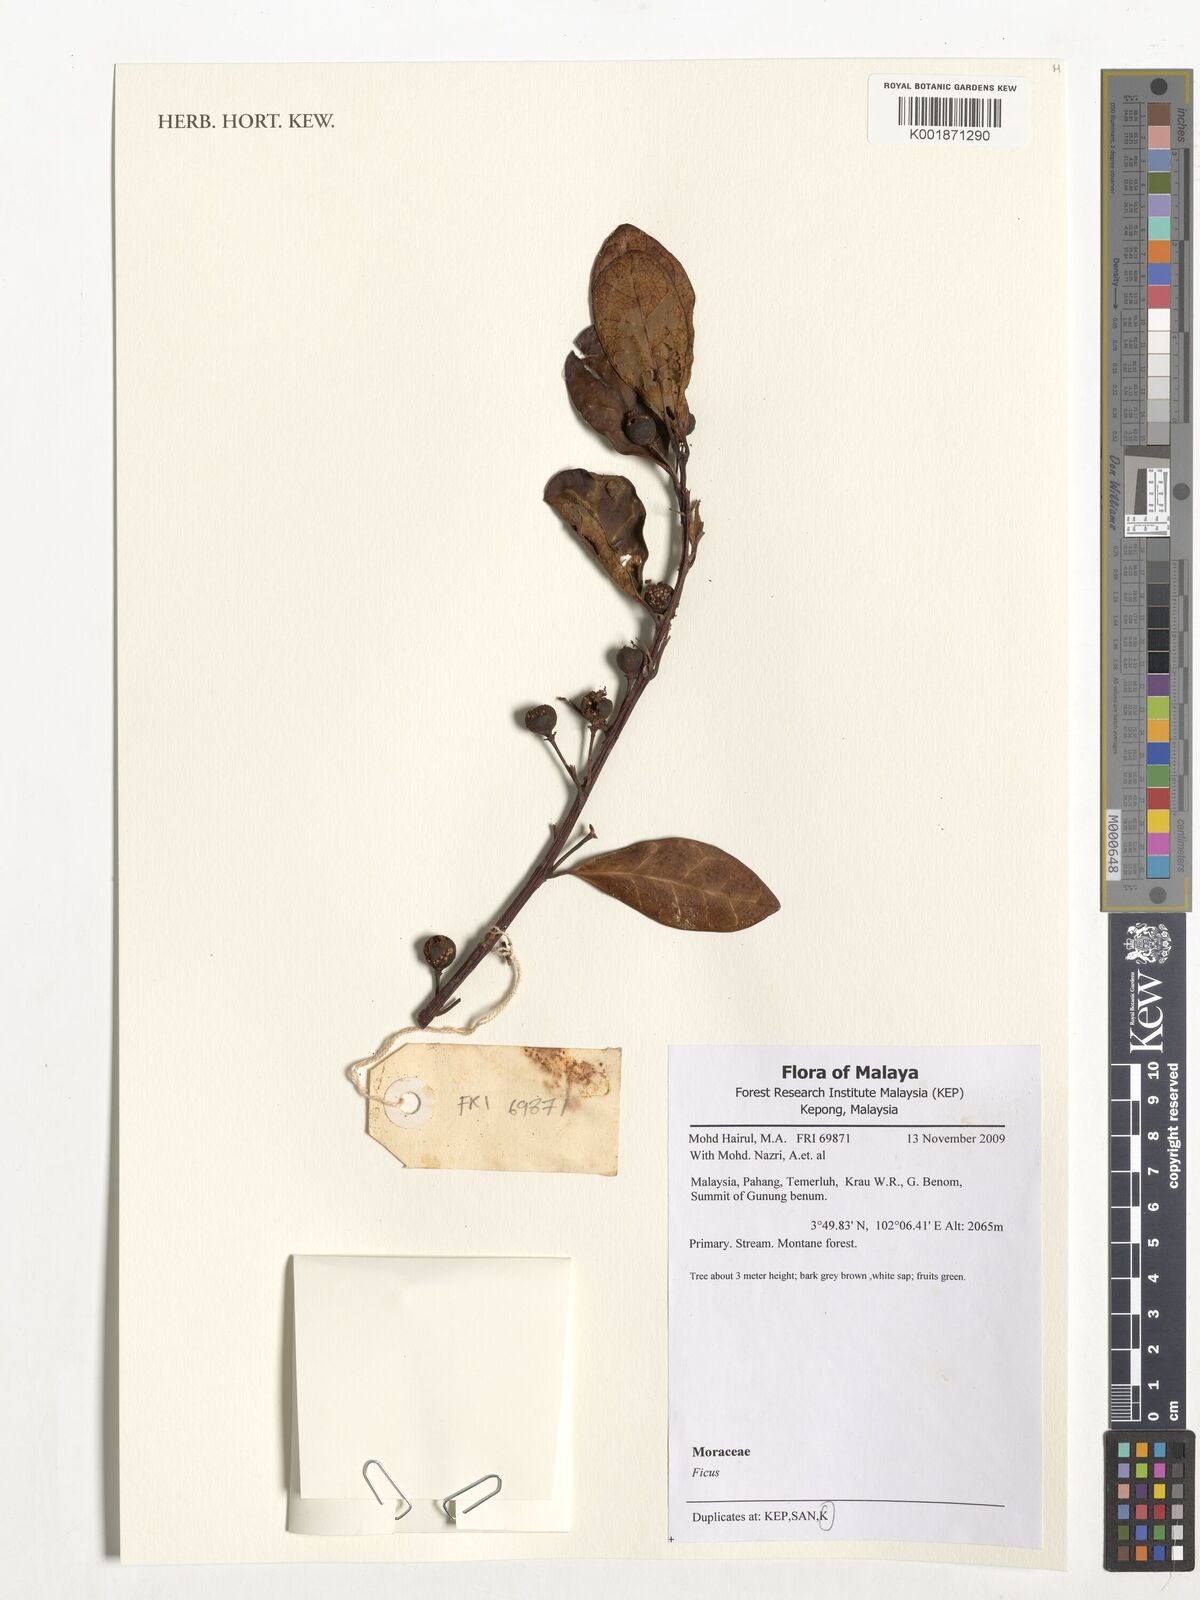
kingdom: Plantae
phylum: Tracheophyta
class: Magnoliopsida
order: Rosales
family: Moraceae
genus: Ficus
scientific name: Ficus
